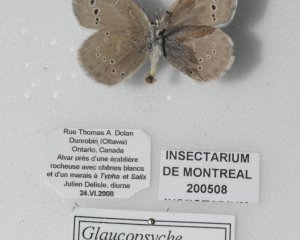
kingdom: Animalia
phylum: Arthropoda
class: Insecta
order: Lepidoptera
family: Lycaenidae
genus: Glaucopsyche
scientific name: Glaucopsyche lygdamus
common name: Silvery Blue
